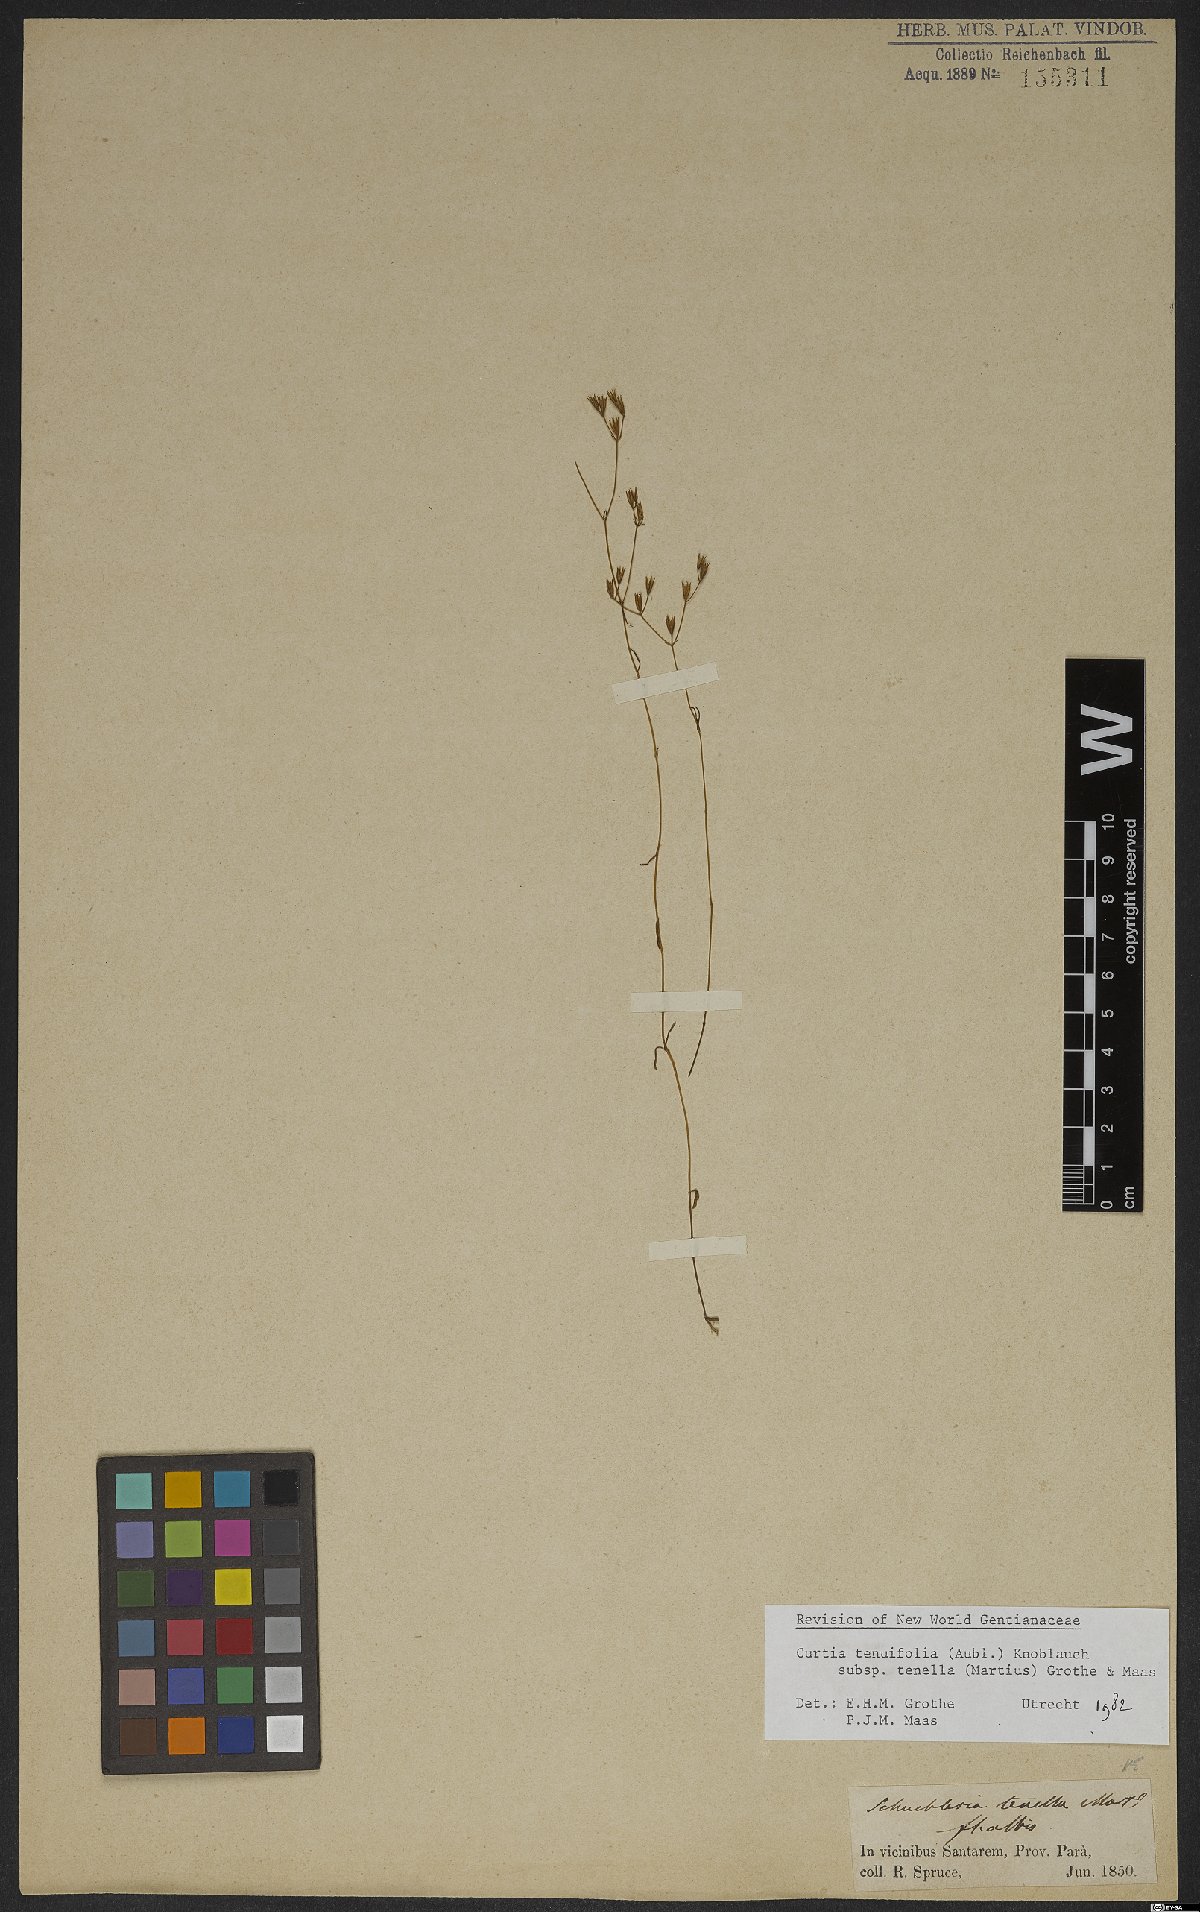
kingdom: Plantae
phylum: Tracheophyta
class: Magnoliopsida
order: Gentianales
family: Gentianaceae
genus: Curtia
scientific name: Curtia tenella
